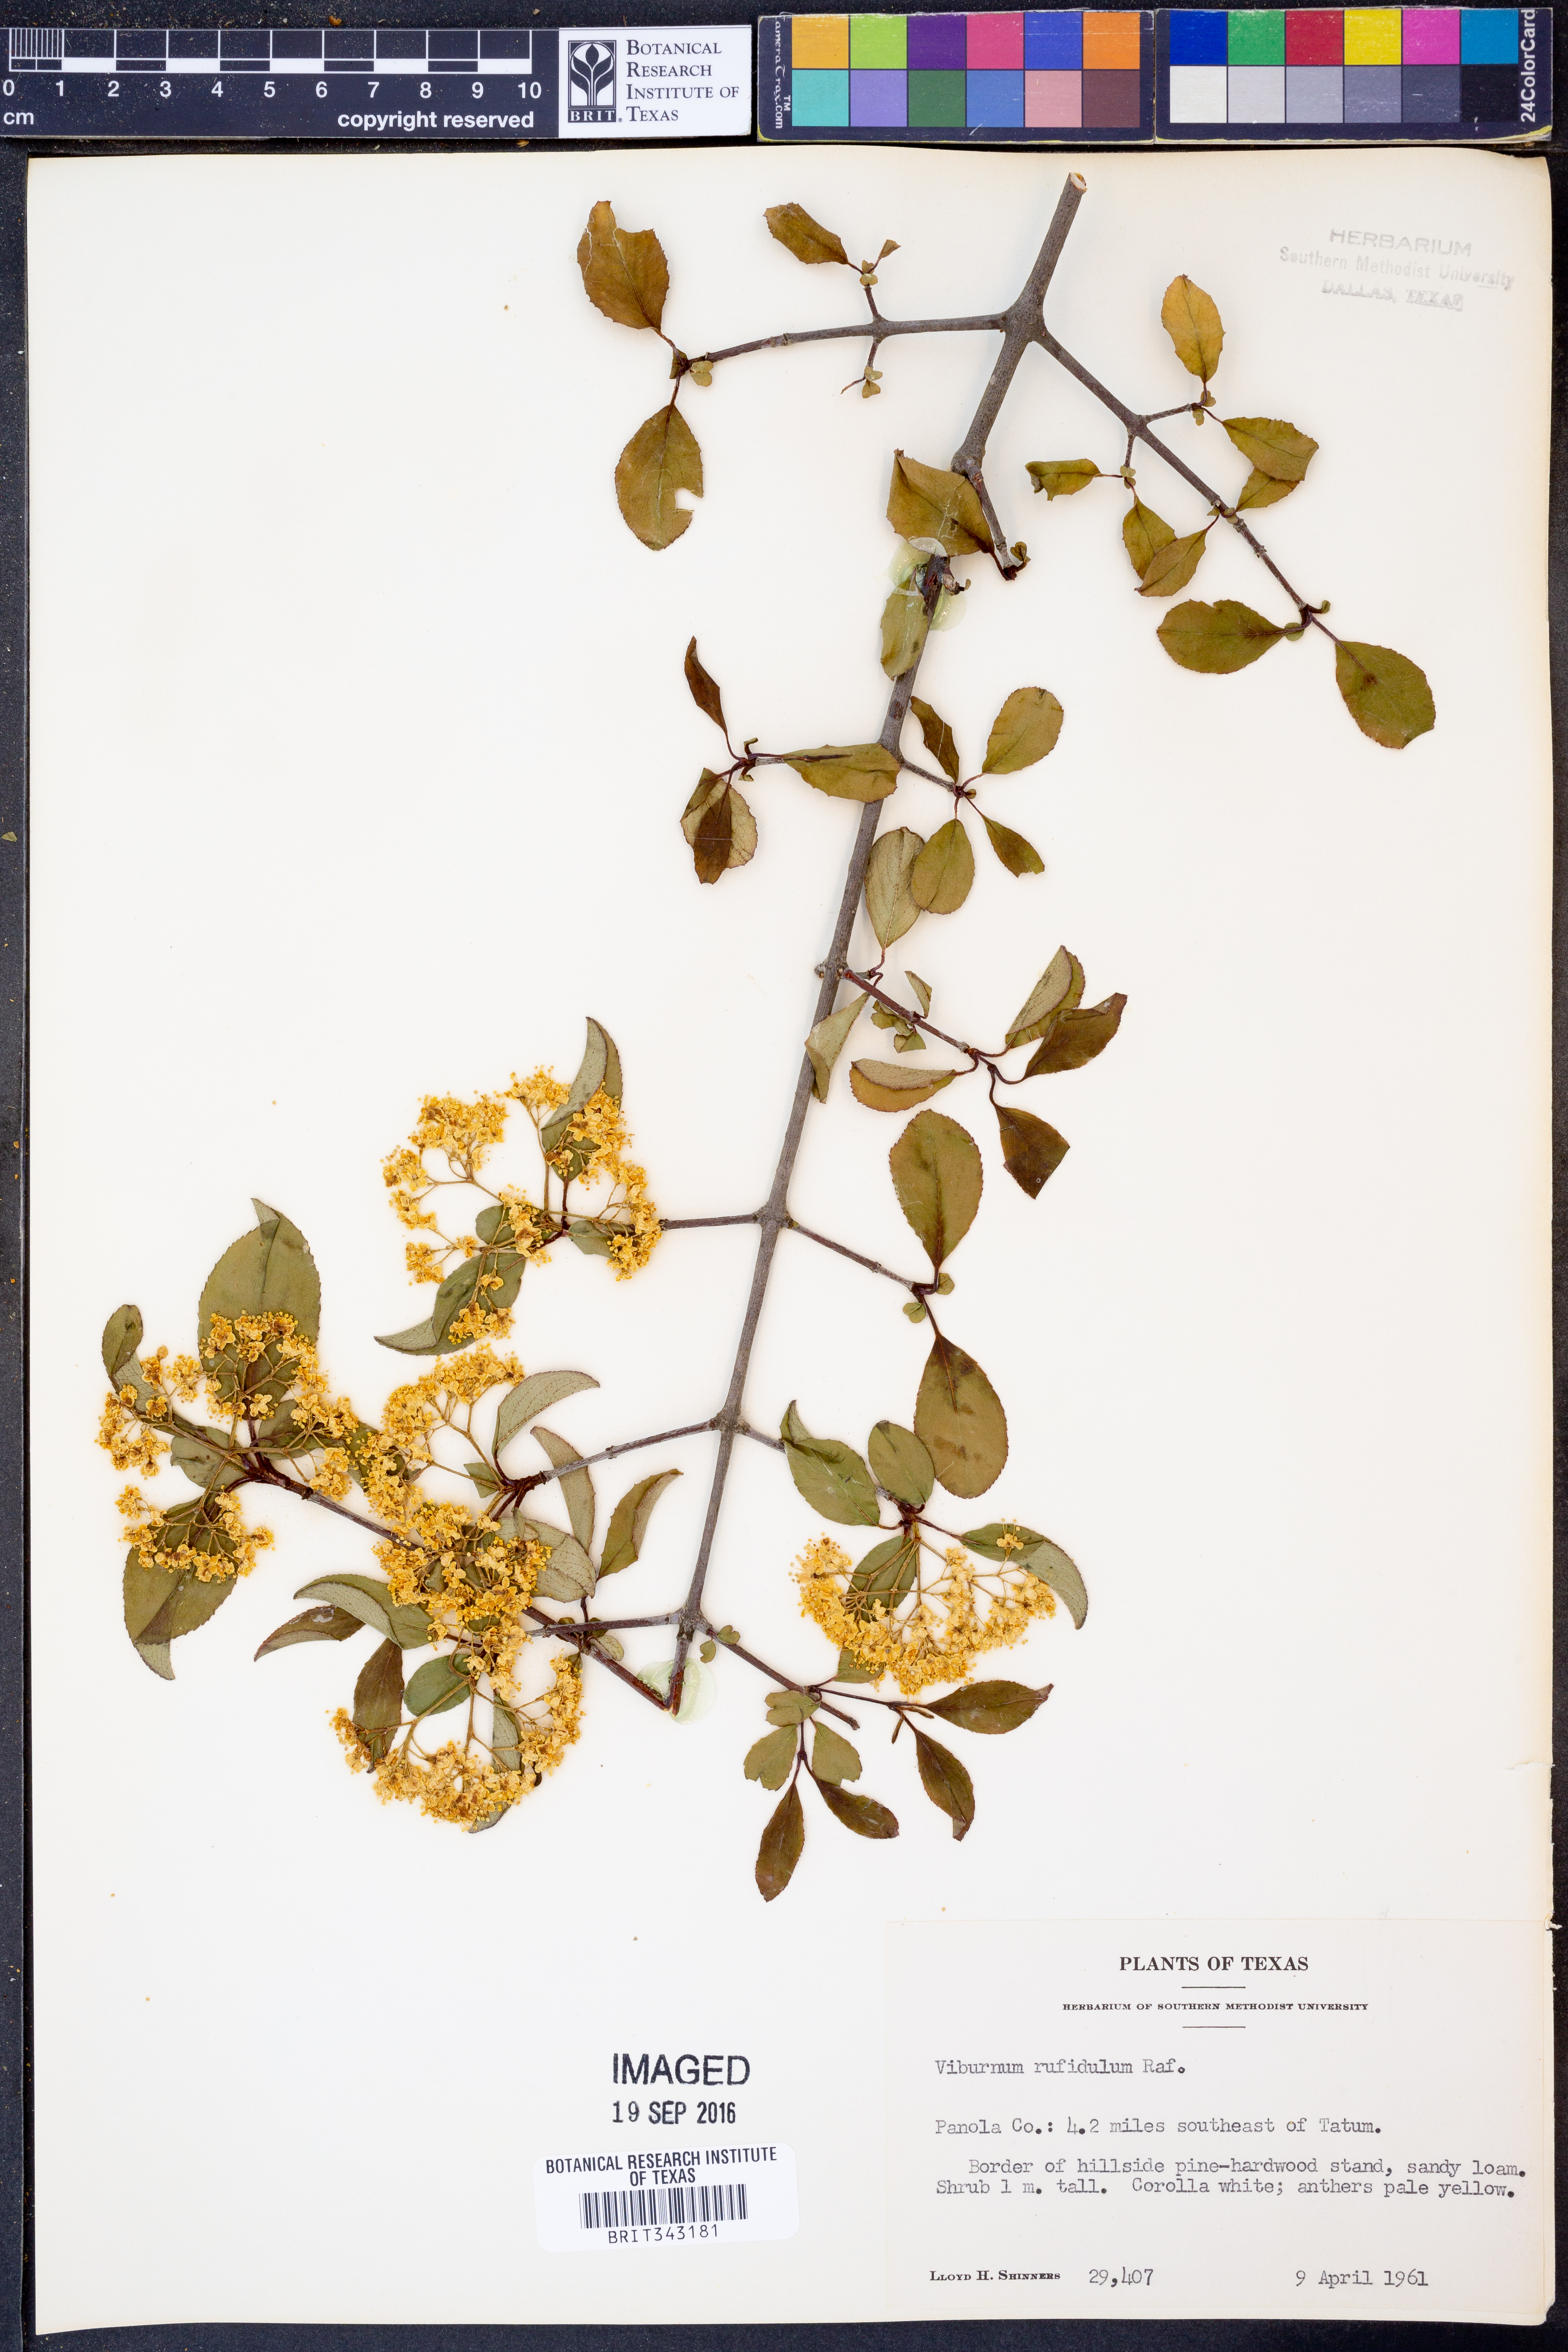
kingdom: Plantae
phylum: Tracheophyta
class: Magnoliopsida
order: Dipsacales
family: Viburnaceae
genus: Viburnum
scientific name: Viburnum rufidulum
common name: Blue haw
